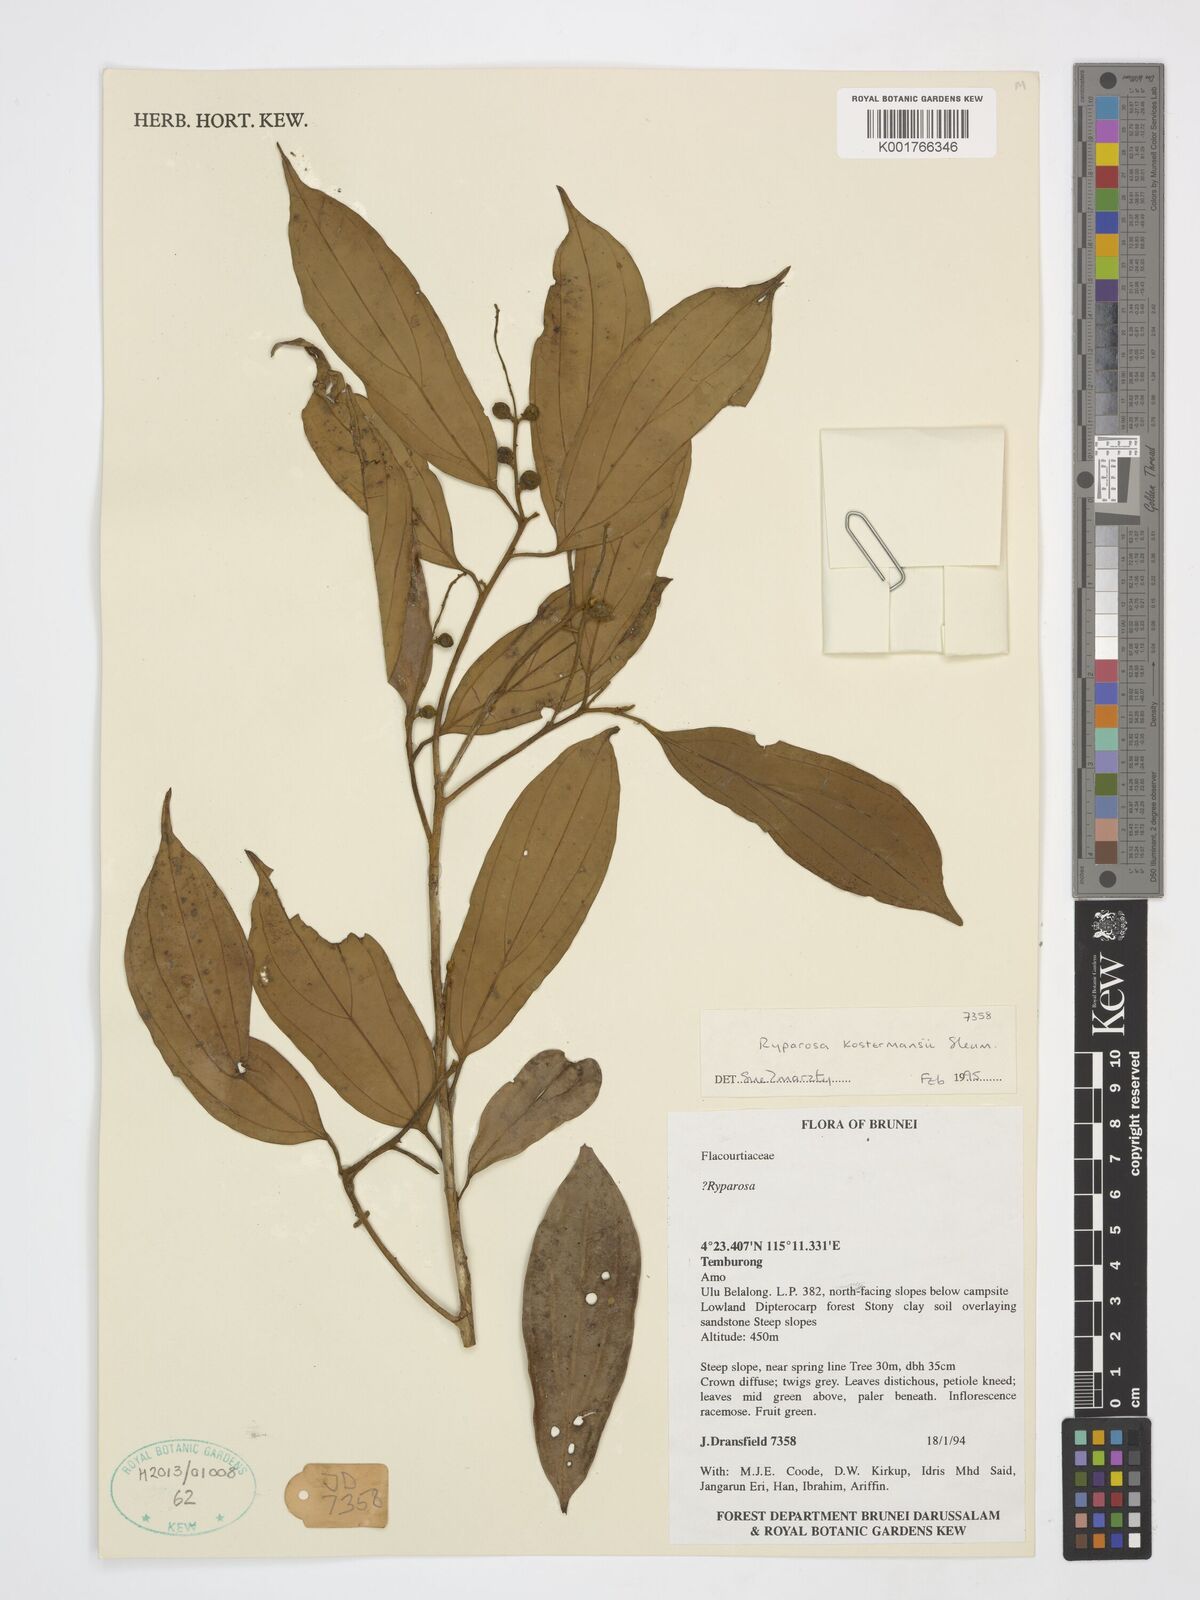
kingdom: Plantae
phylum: Tracheophyta
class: Magnoliopsida
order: Malpighiales
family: Achariaceae
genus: Ryparosa
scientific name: Ryparosa kostermansii
